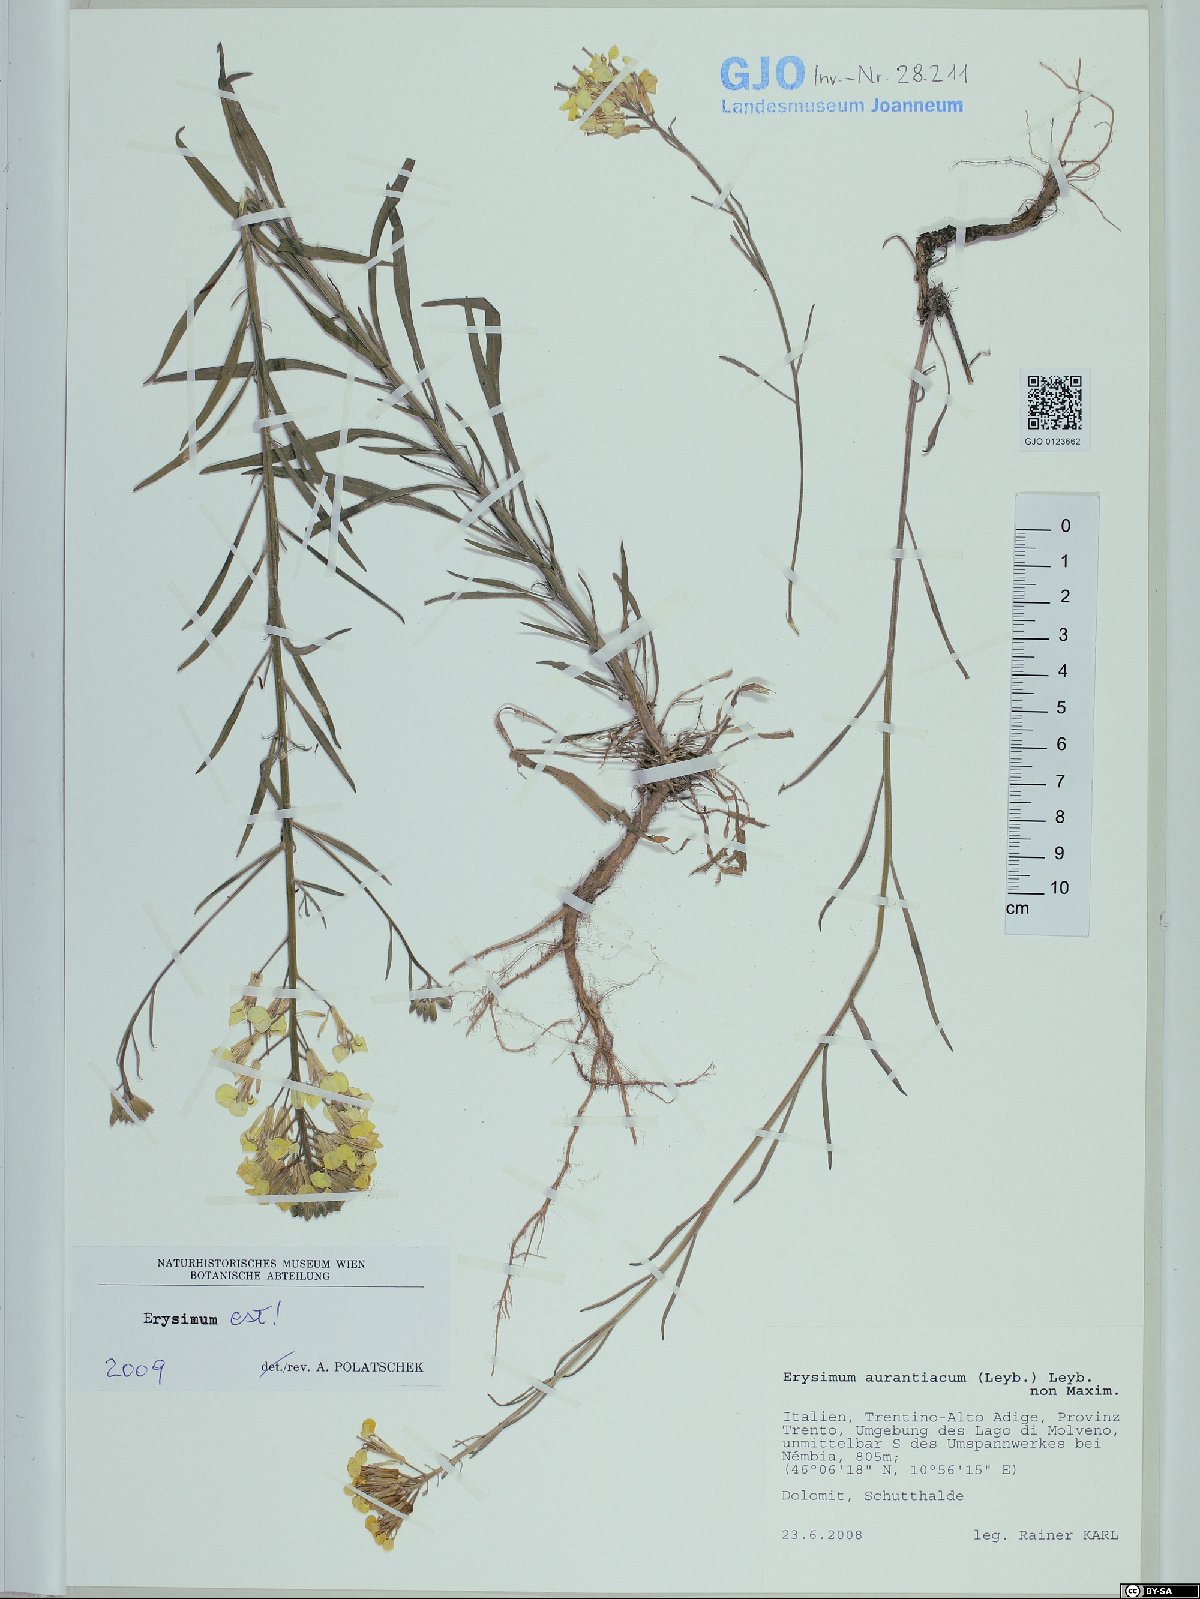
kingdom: Plantae
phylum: Tracheophyta
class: Magnoliopsida
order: Brassicales
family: Brassicaceae
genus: Erysimum
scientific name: Erysimum sylvestre
